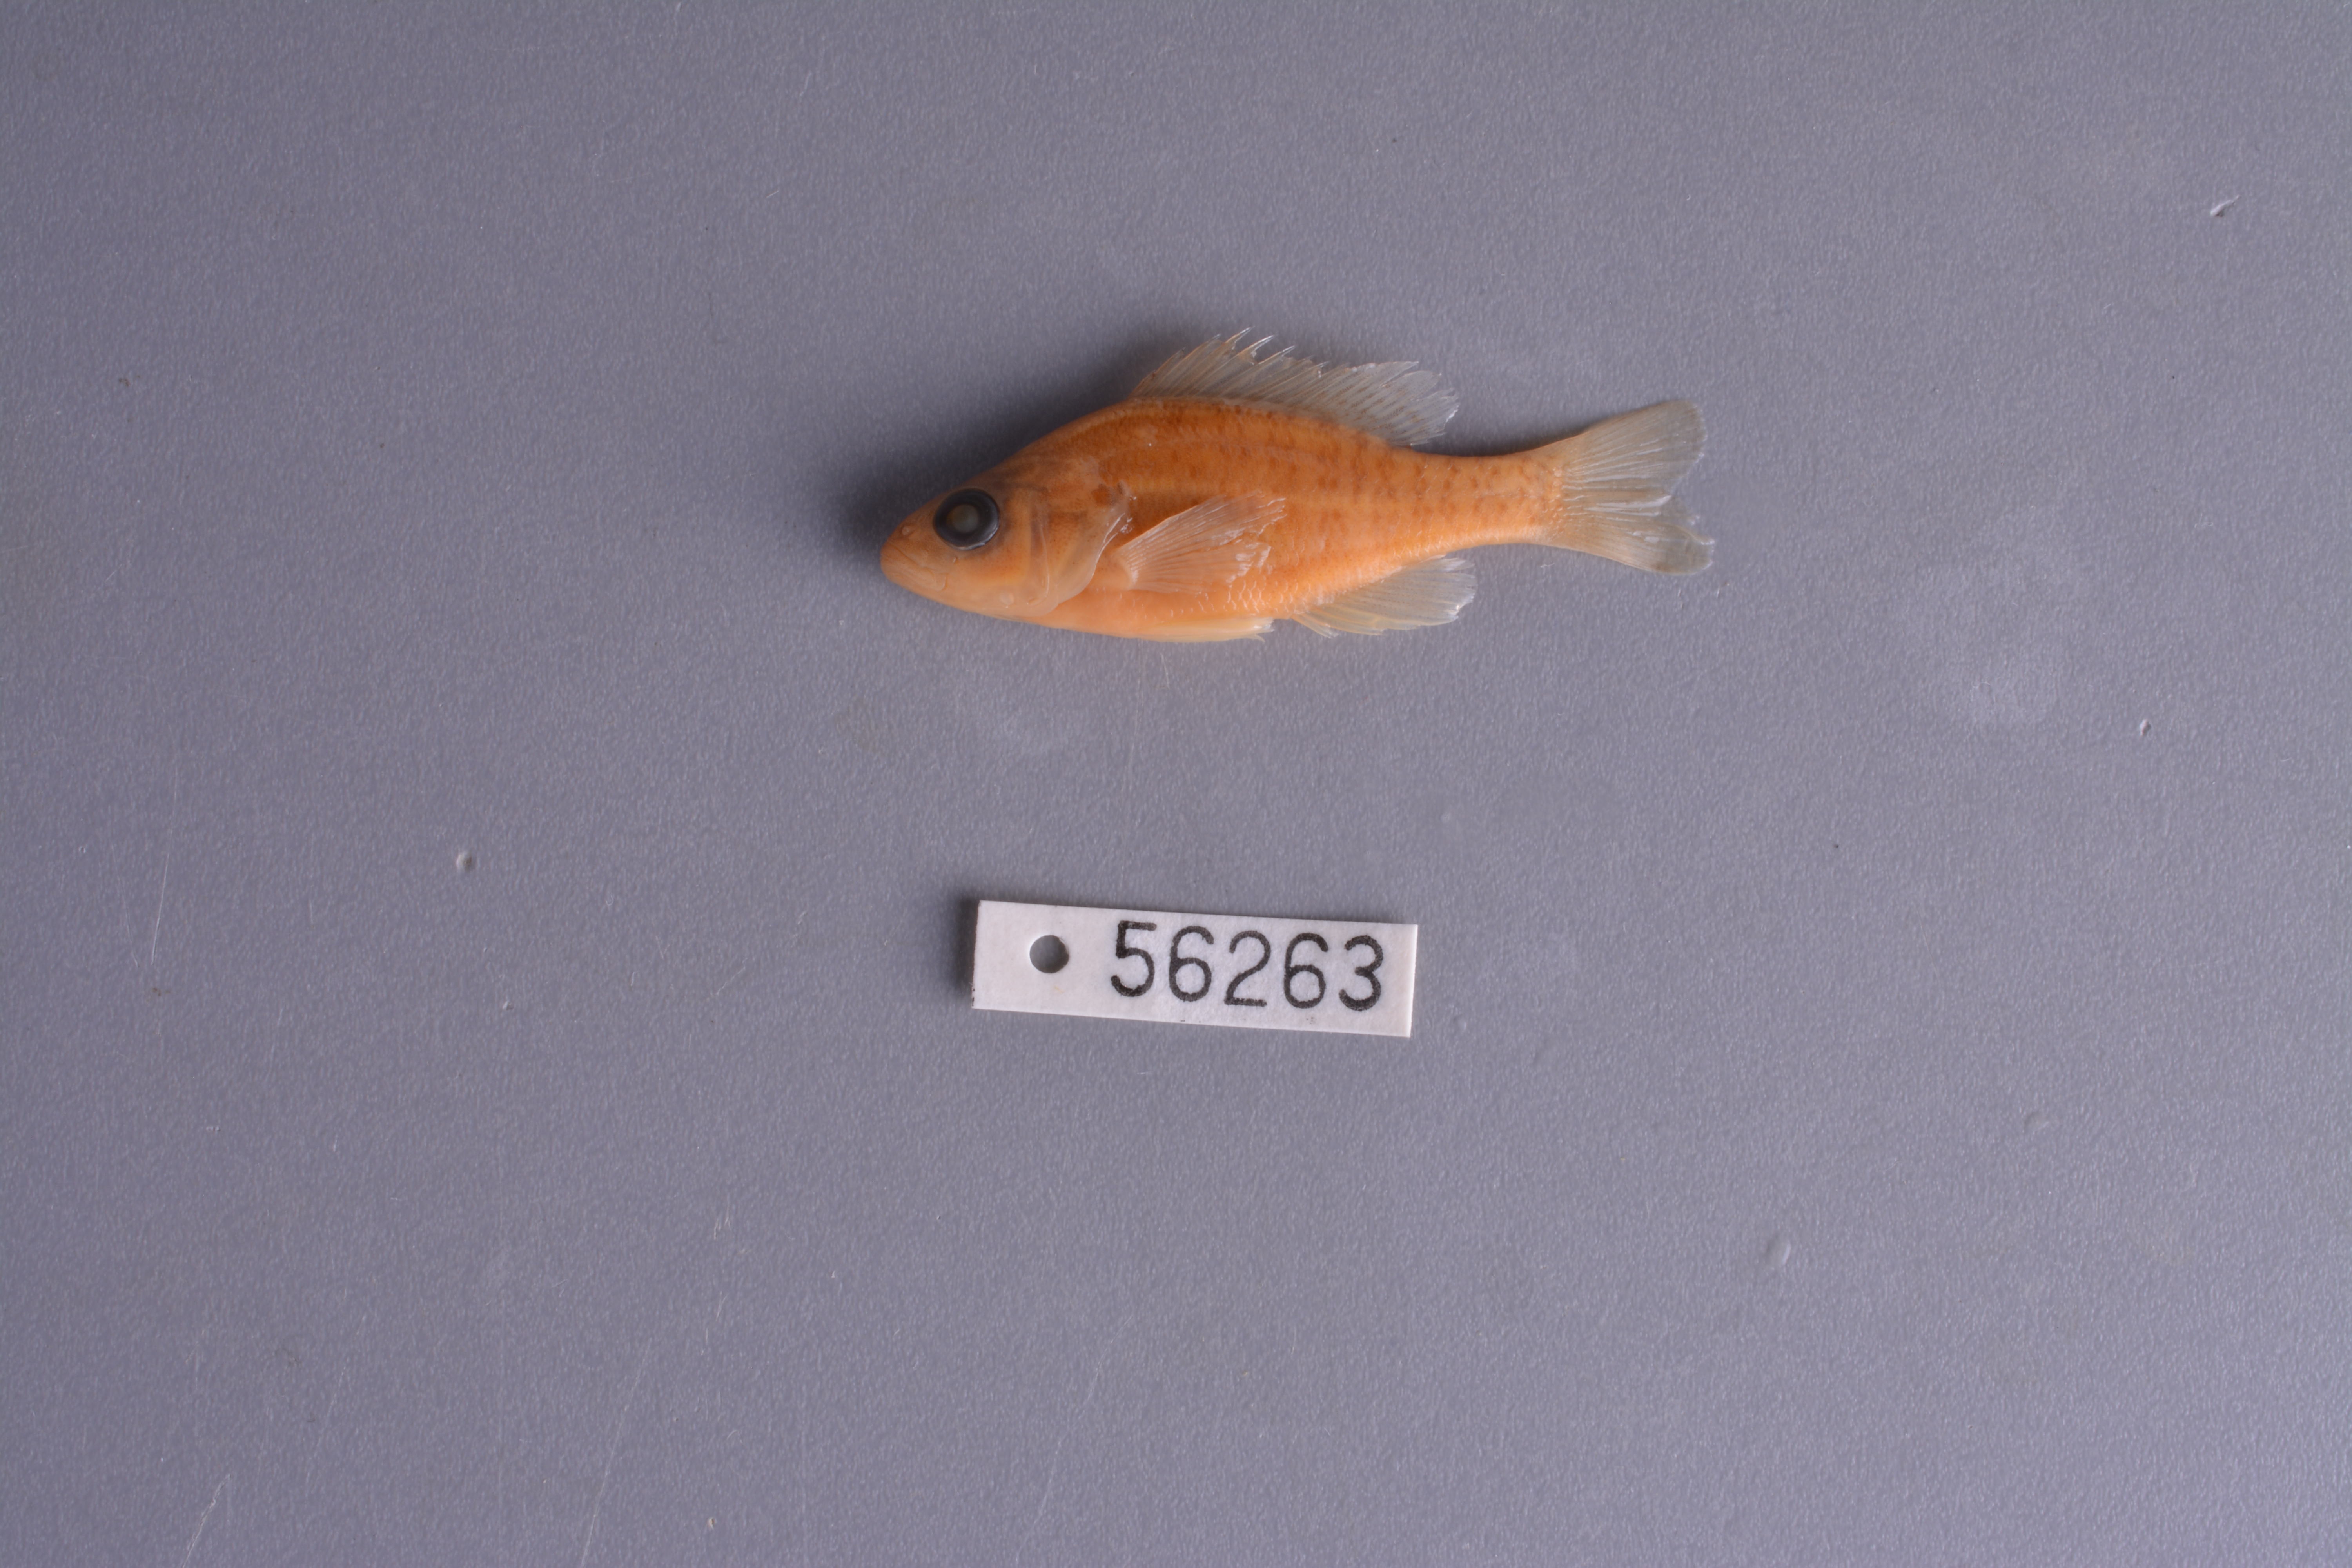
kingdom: Animalia
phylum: Chordata
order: Perciformes
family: Centrarchidae
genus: Lepomis
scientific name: Lepomis humilis
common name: Orangespotted sunfish
